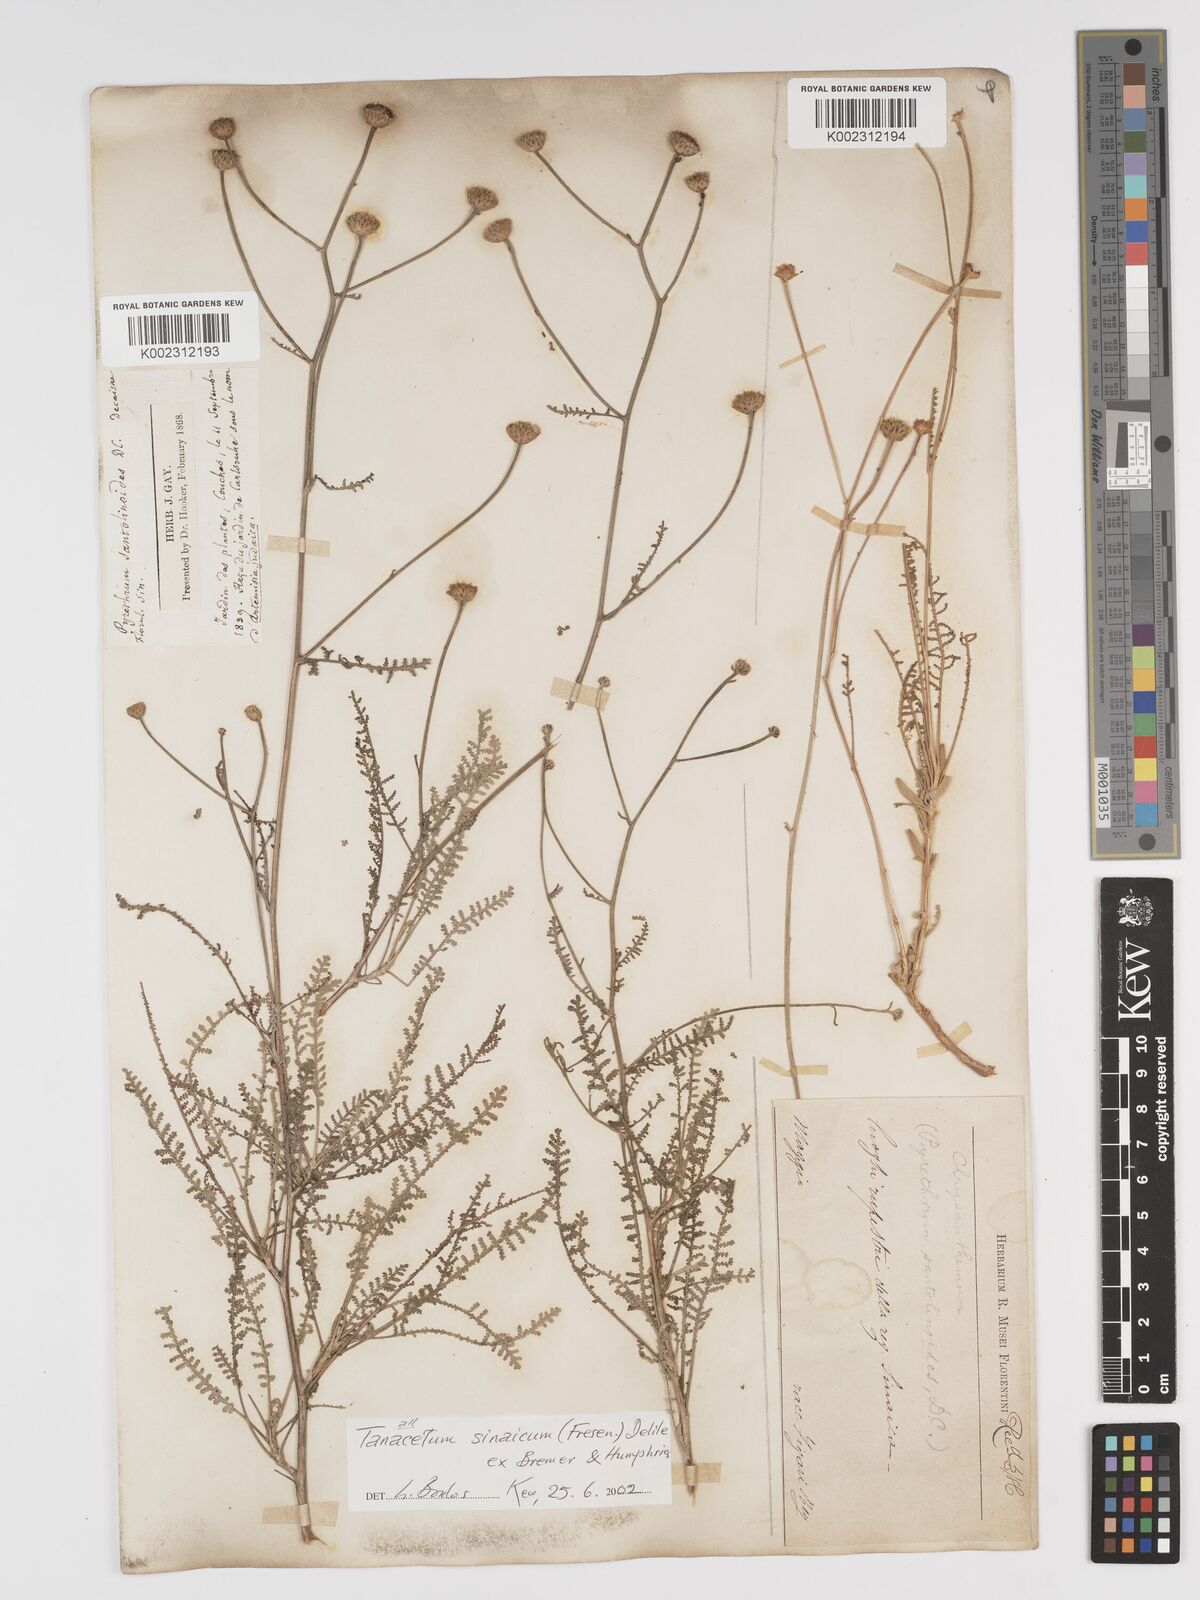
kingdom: Plantae
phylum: Tracheophyta
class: Magnoliopsida
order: Asterales
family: Asteraceae
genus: Tanacetum
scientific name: Tanacetum sinaicum
